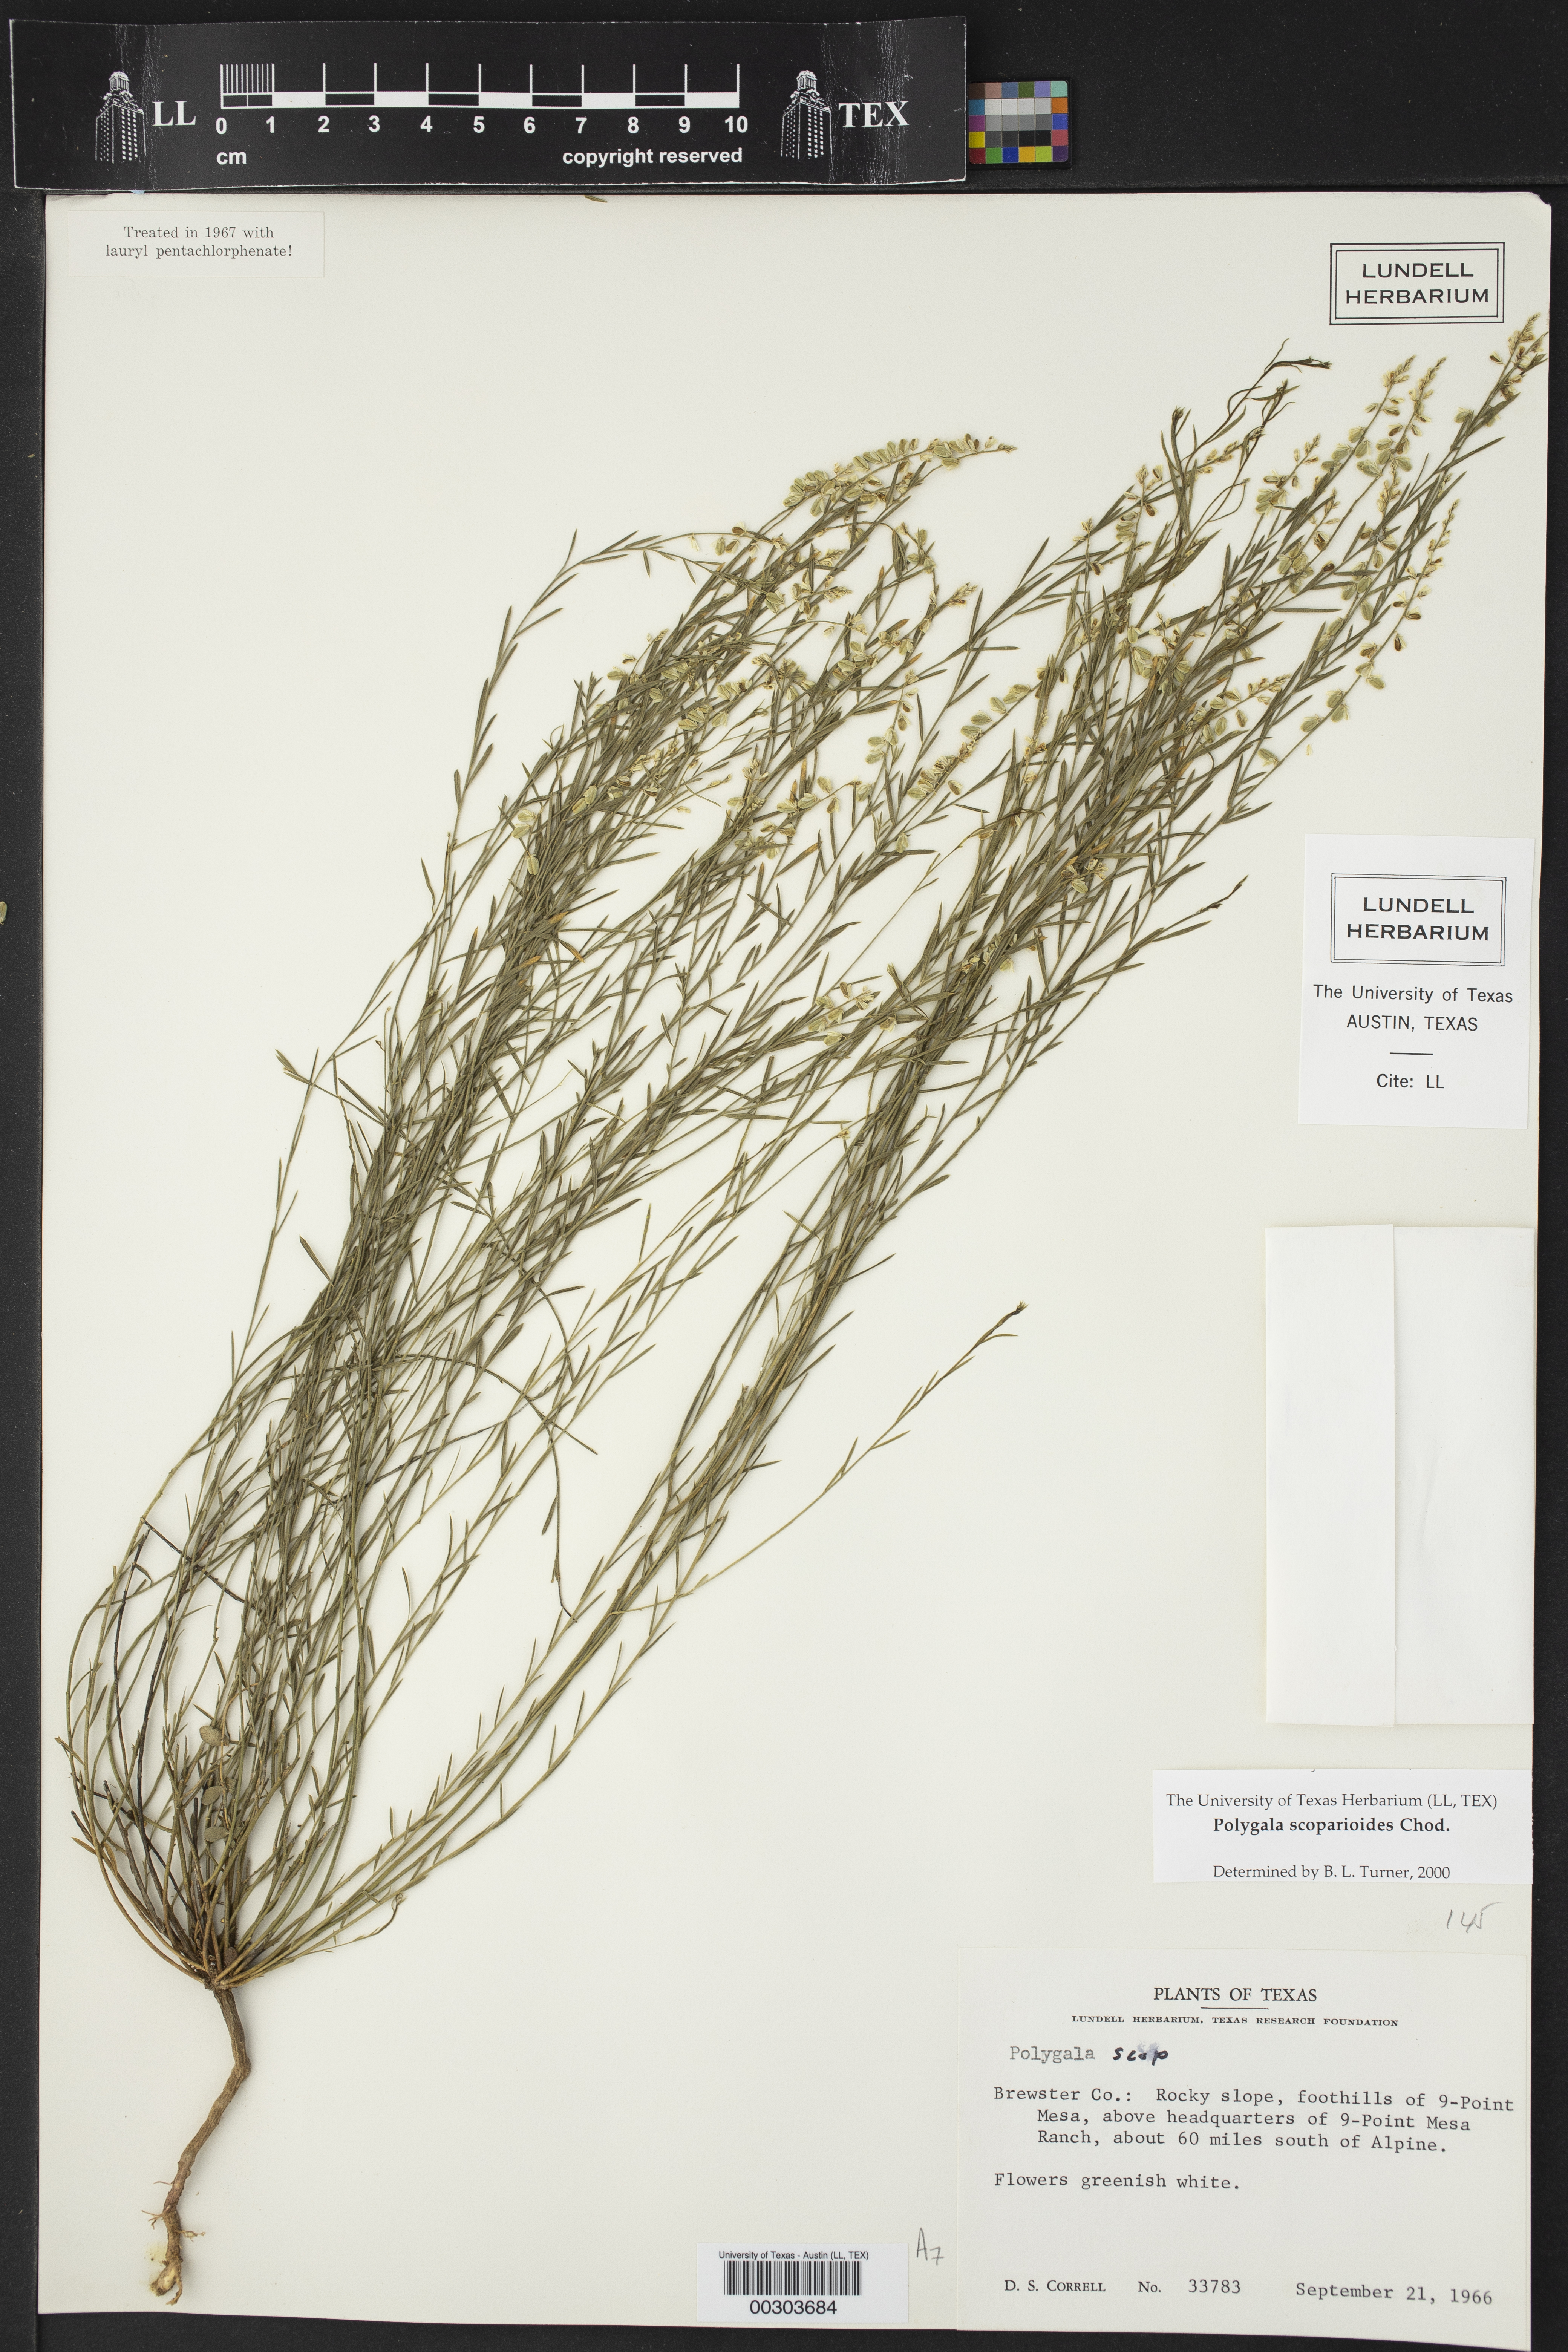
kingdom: Plantae
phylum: Tracheophyta
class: Magnoliopsida
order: Fabales
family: Polygalaceae
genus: Polygala
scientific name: Polygala scoparioides
